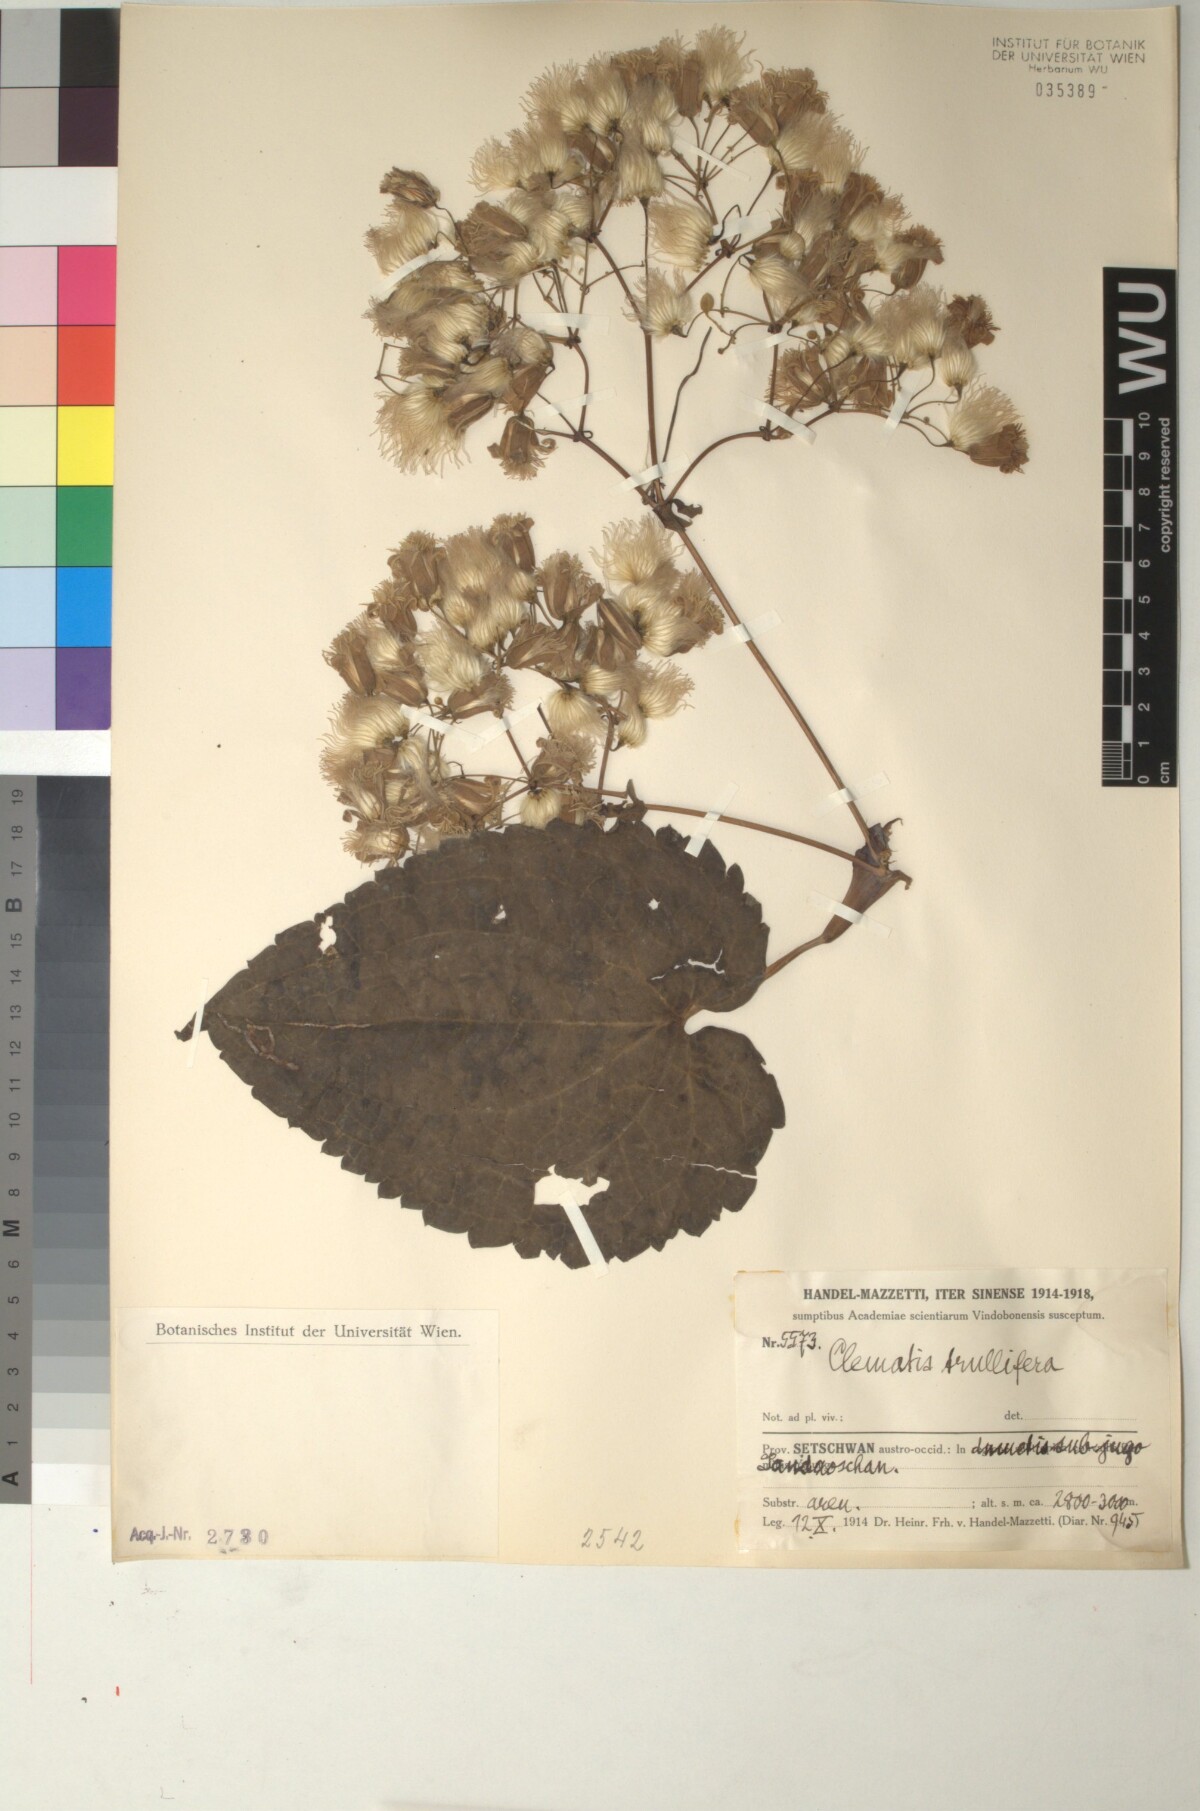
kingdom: Plantae
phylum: Tracheophyta
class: Magnoliopsida
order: Ranunculales
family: Ranunculaceae
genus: Clematis
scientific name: Clematis connata
